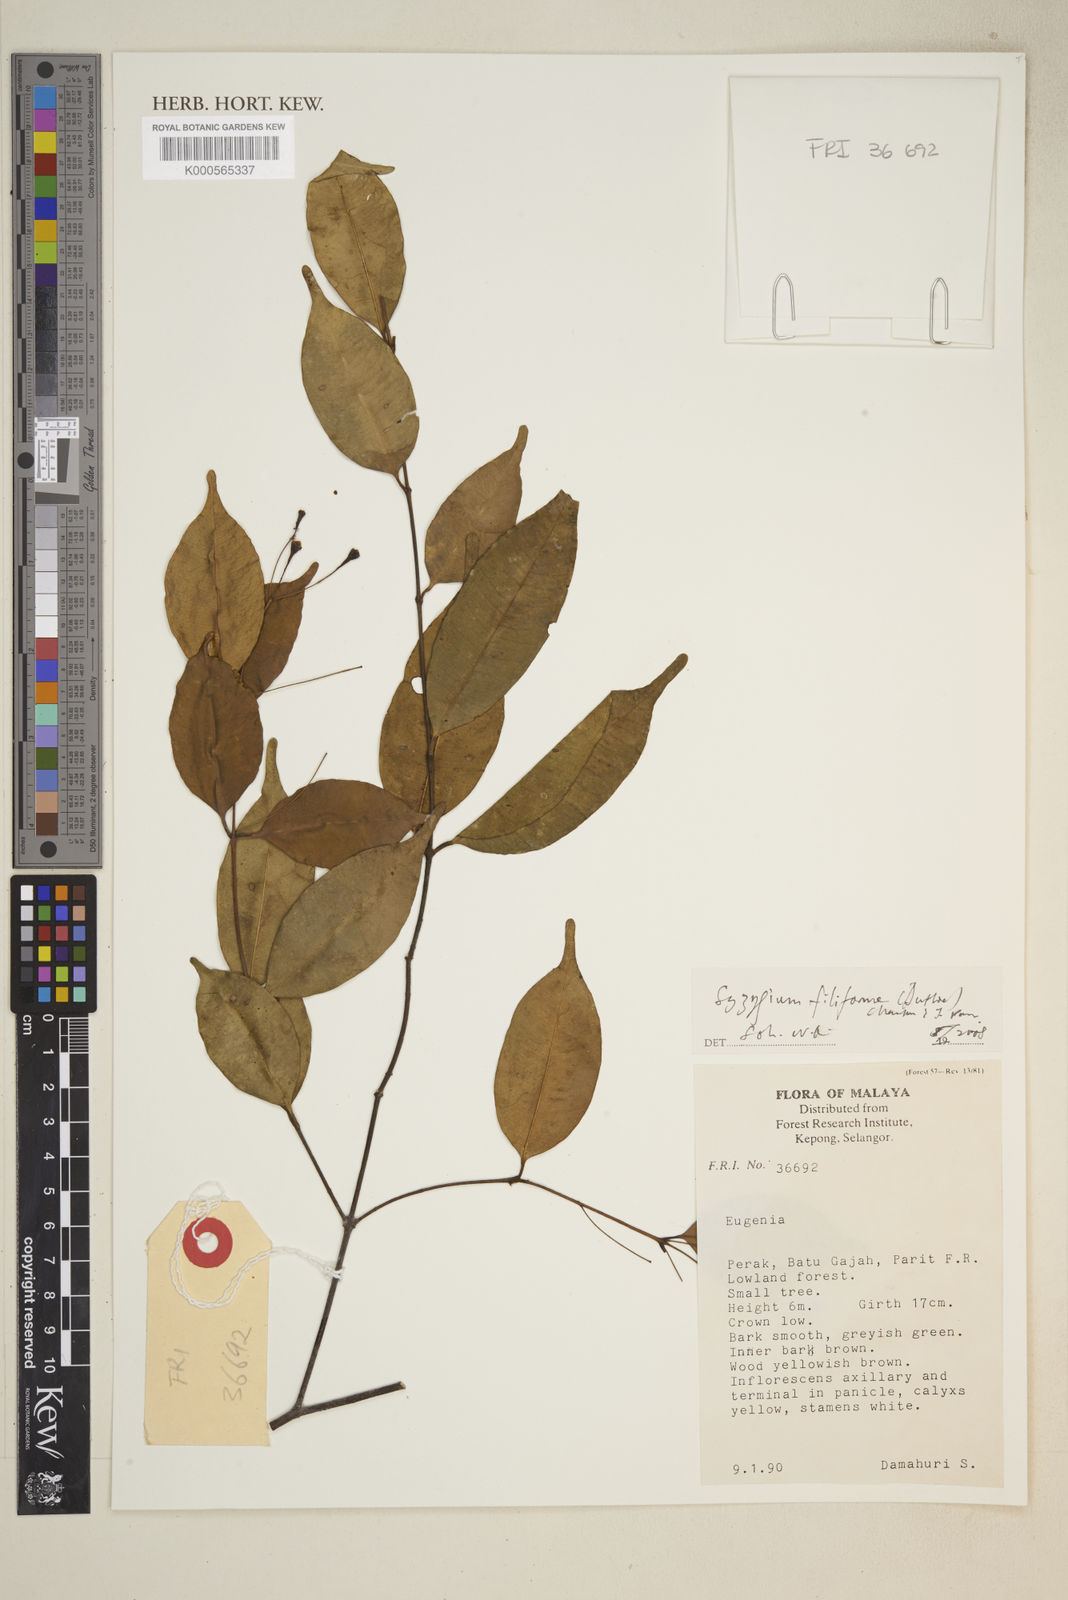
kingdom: Plantae
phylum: Tracheophyta
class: Magnoliopsida
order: Myrtales
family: Myrtaceae
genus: Syzygium
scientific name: Syzygium filiforme
